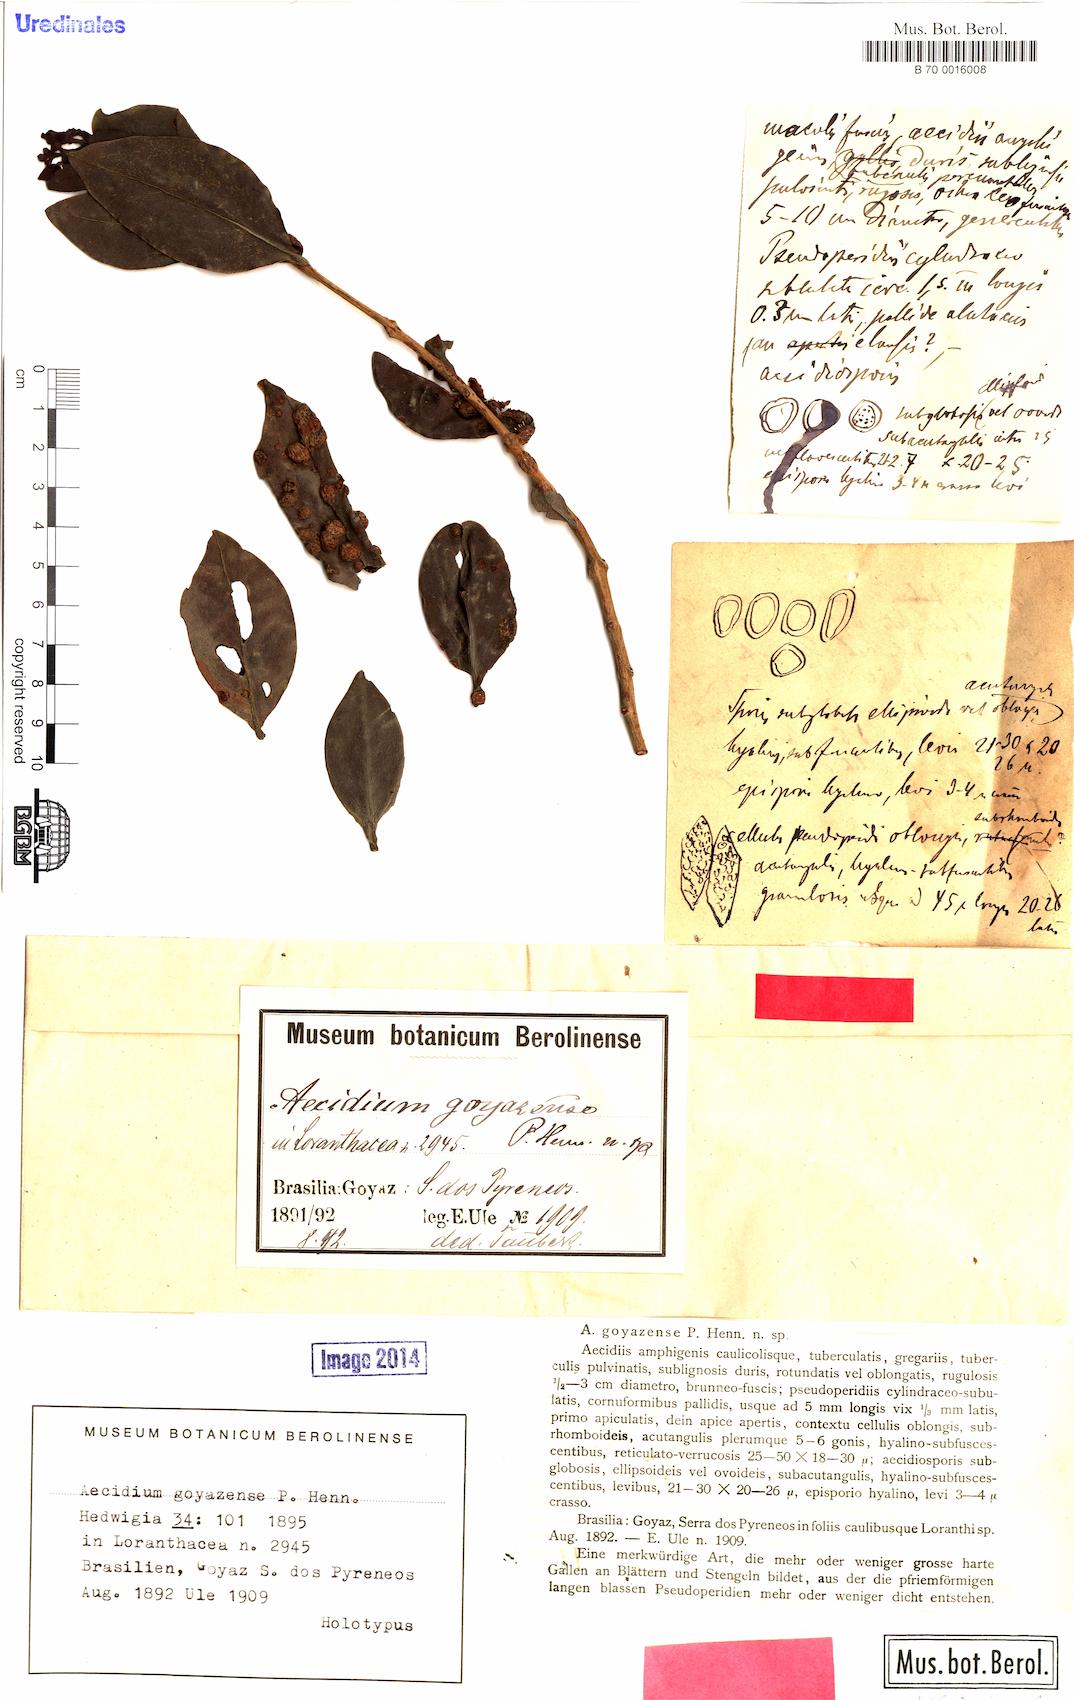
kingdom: Fungi
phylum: Basidiomycota
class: Pucciniomycetes
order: Pucciniales
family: Pucciniaceae
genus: Uromyces
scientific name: Uromyces hawksworthii
